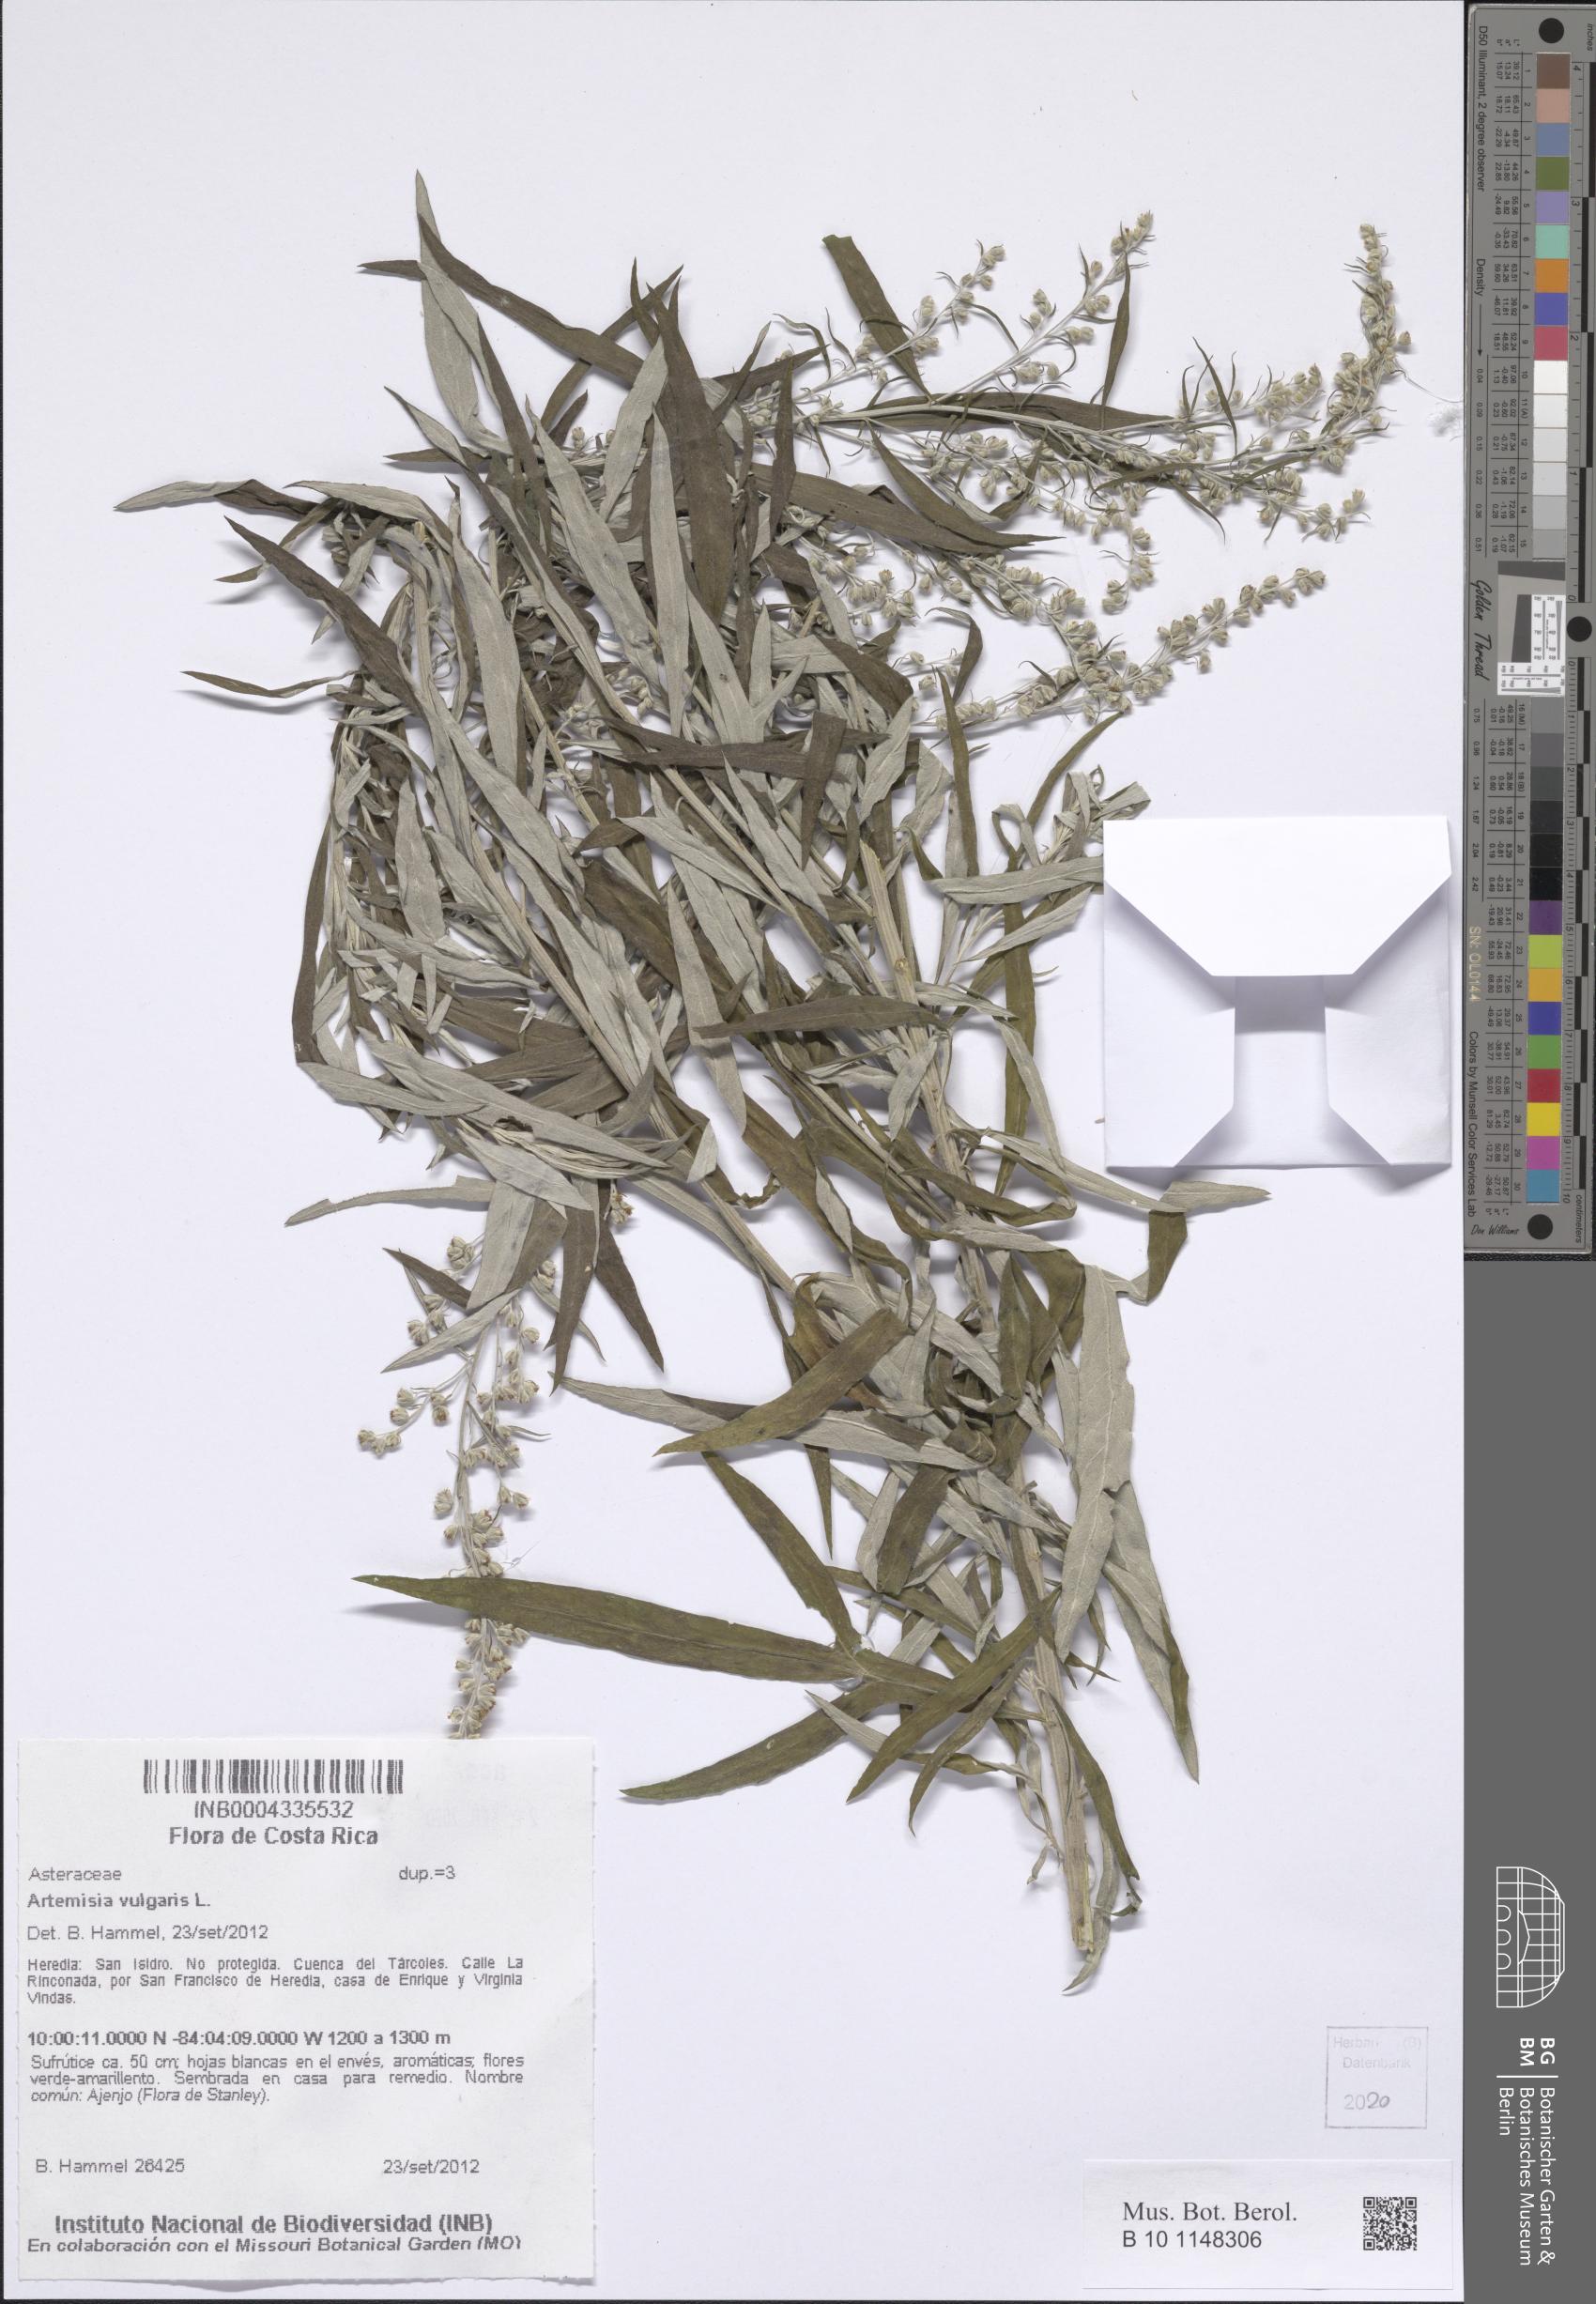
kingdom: Plantae
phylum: Tracheophyta
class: Magnoliopsida
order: Asterales
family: Asteraceae
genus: Artemisia
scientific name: Artemisia vulgaris
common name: Mugwort
